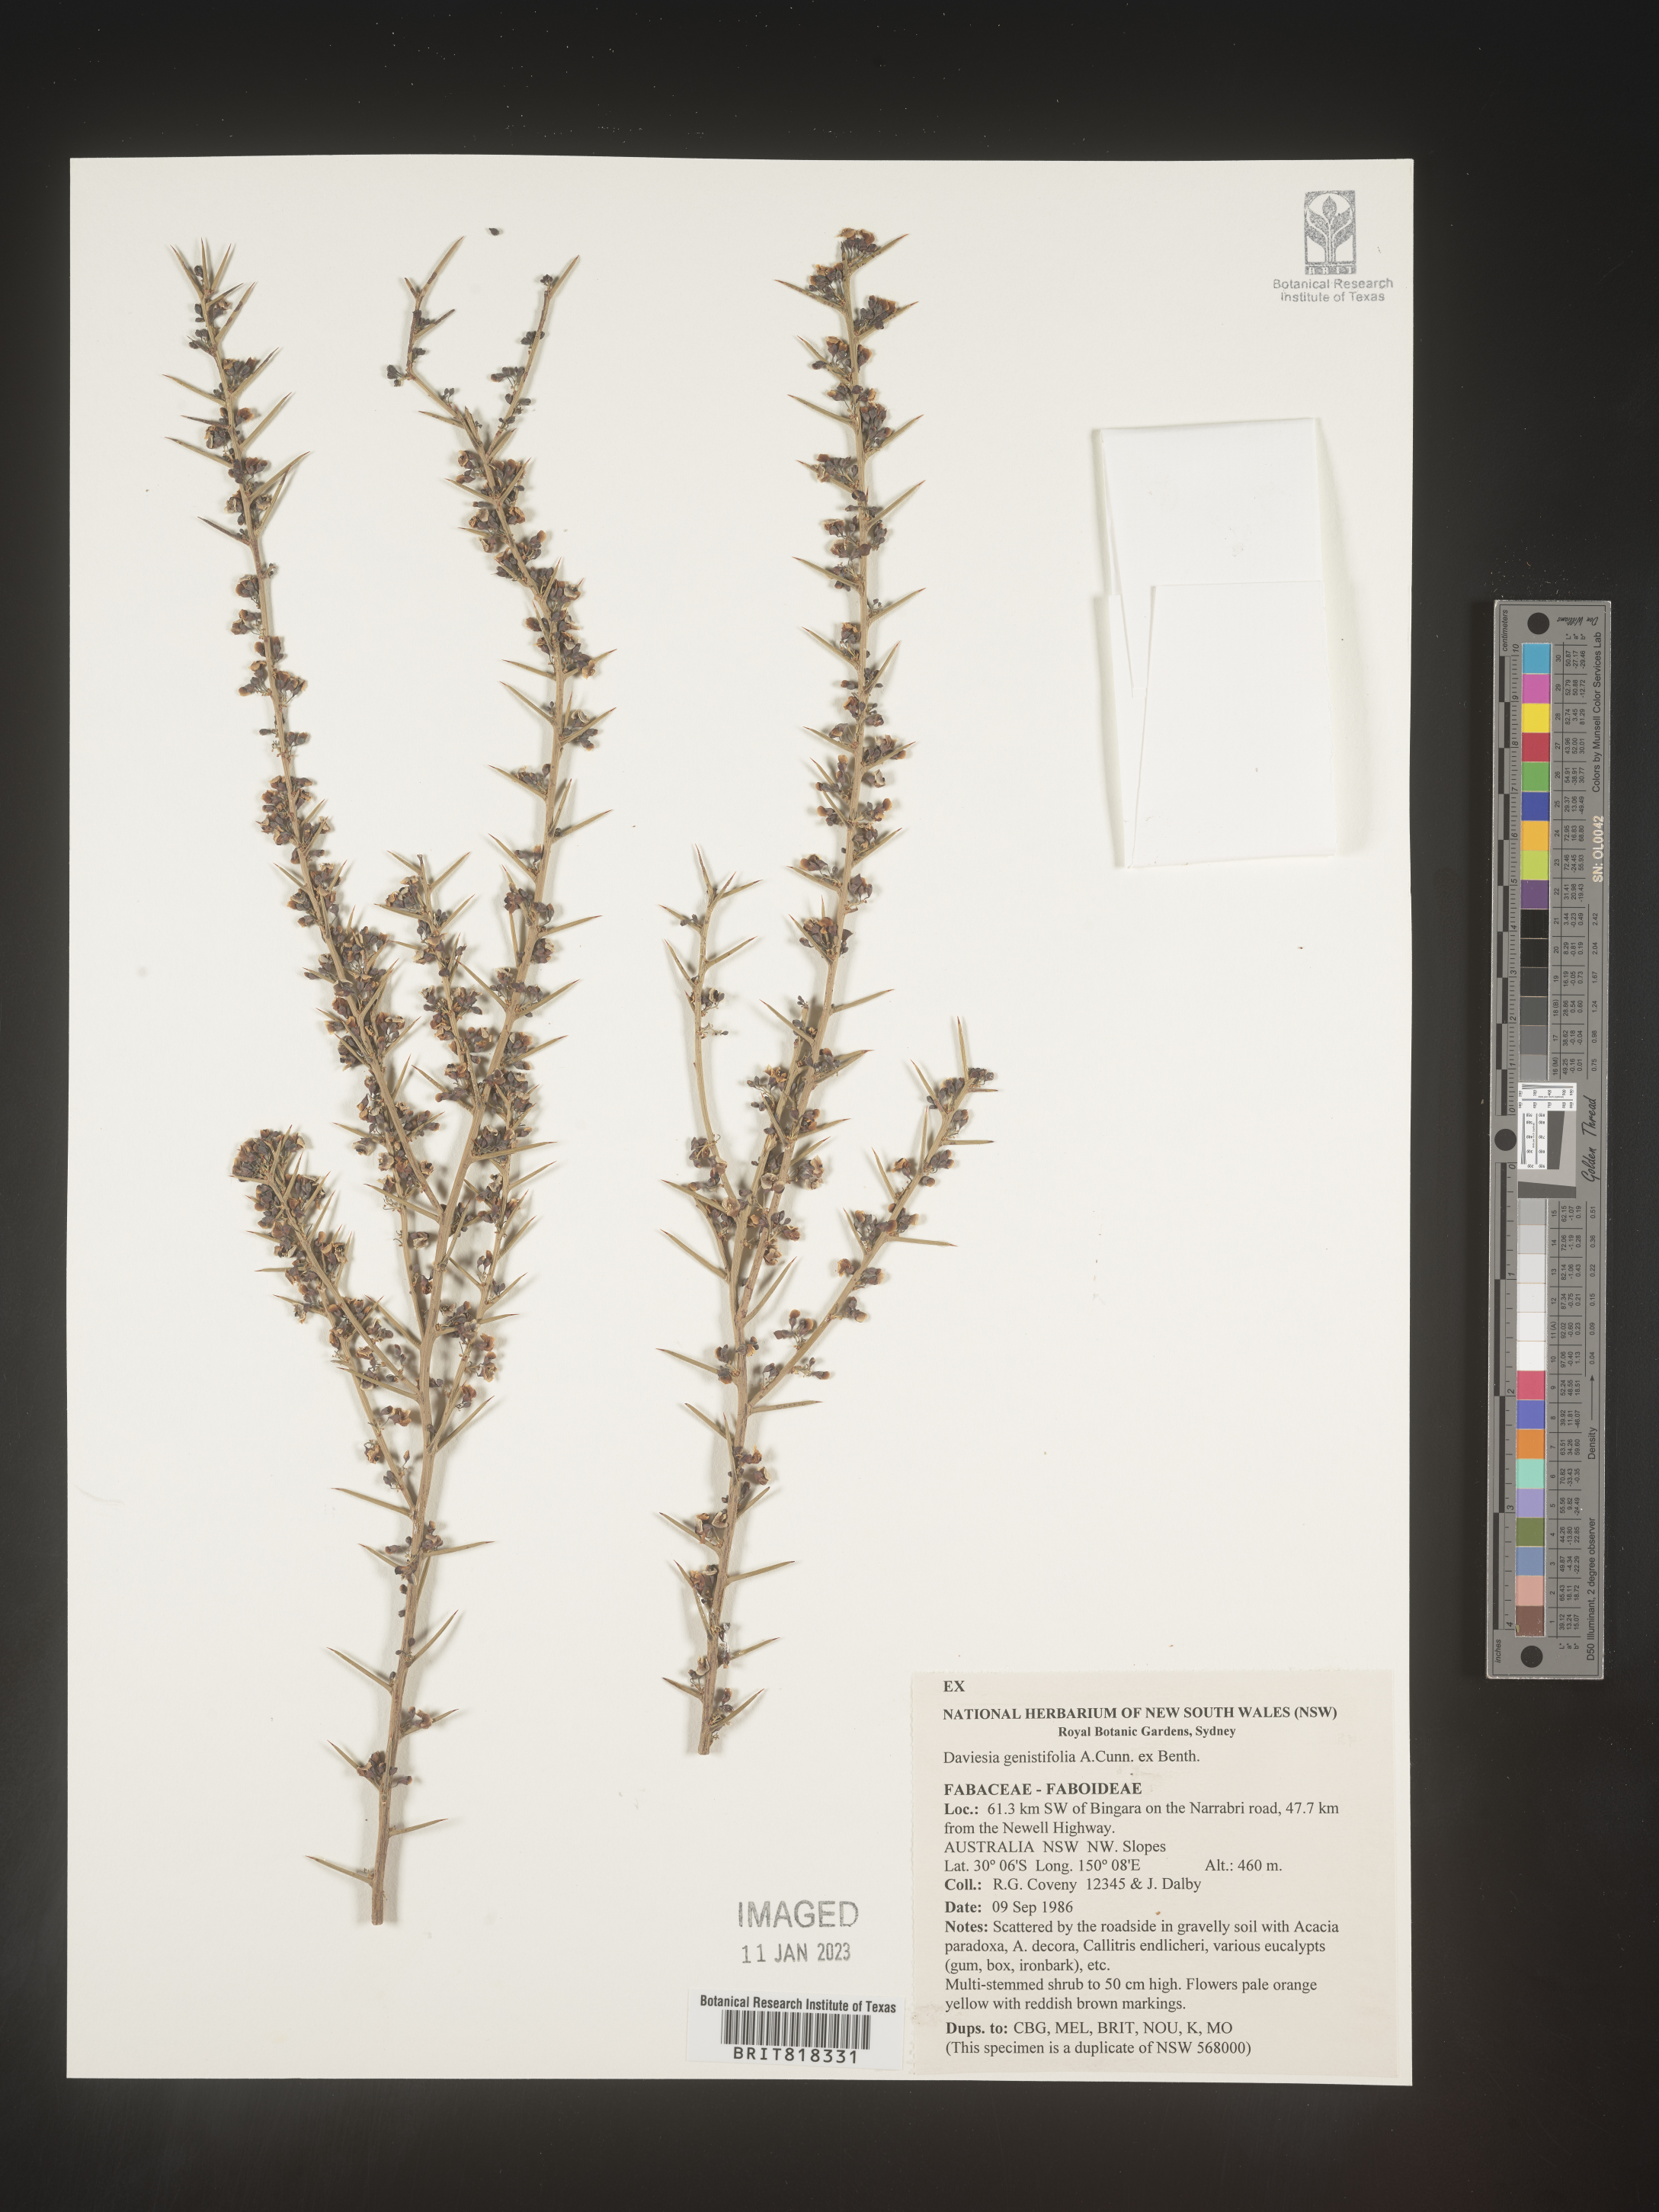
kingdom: Plantae
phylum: Tracheophyta
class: Magnoliopsida
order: Fabales
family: Fabaceae
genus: Daviesia
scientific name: Daviesia
